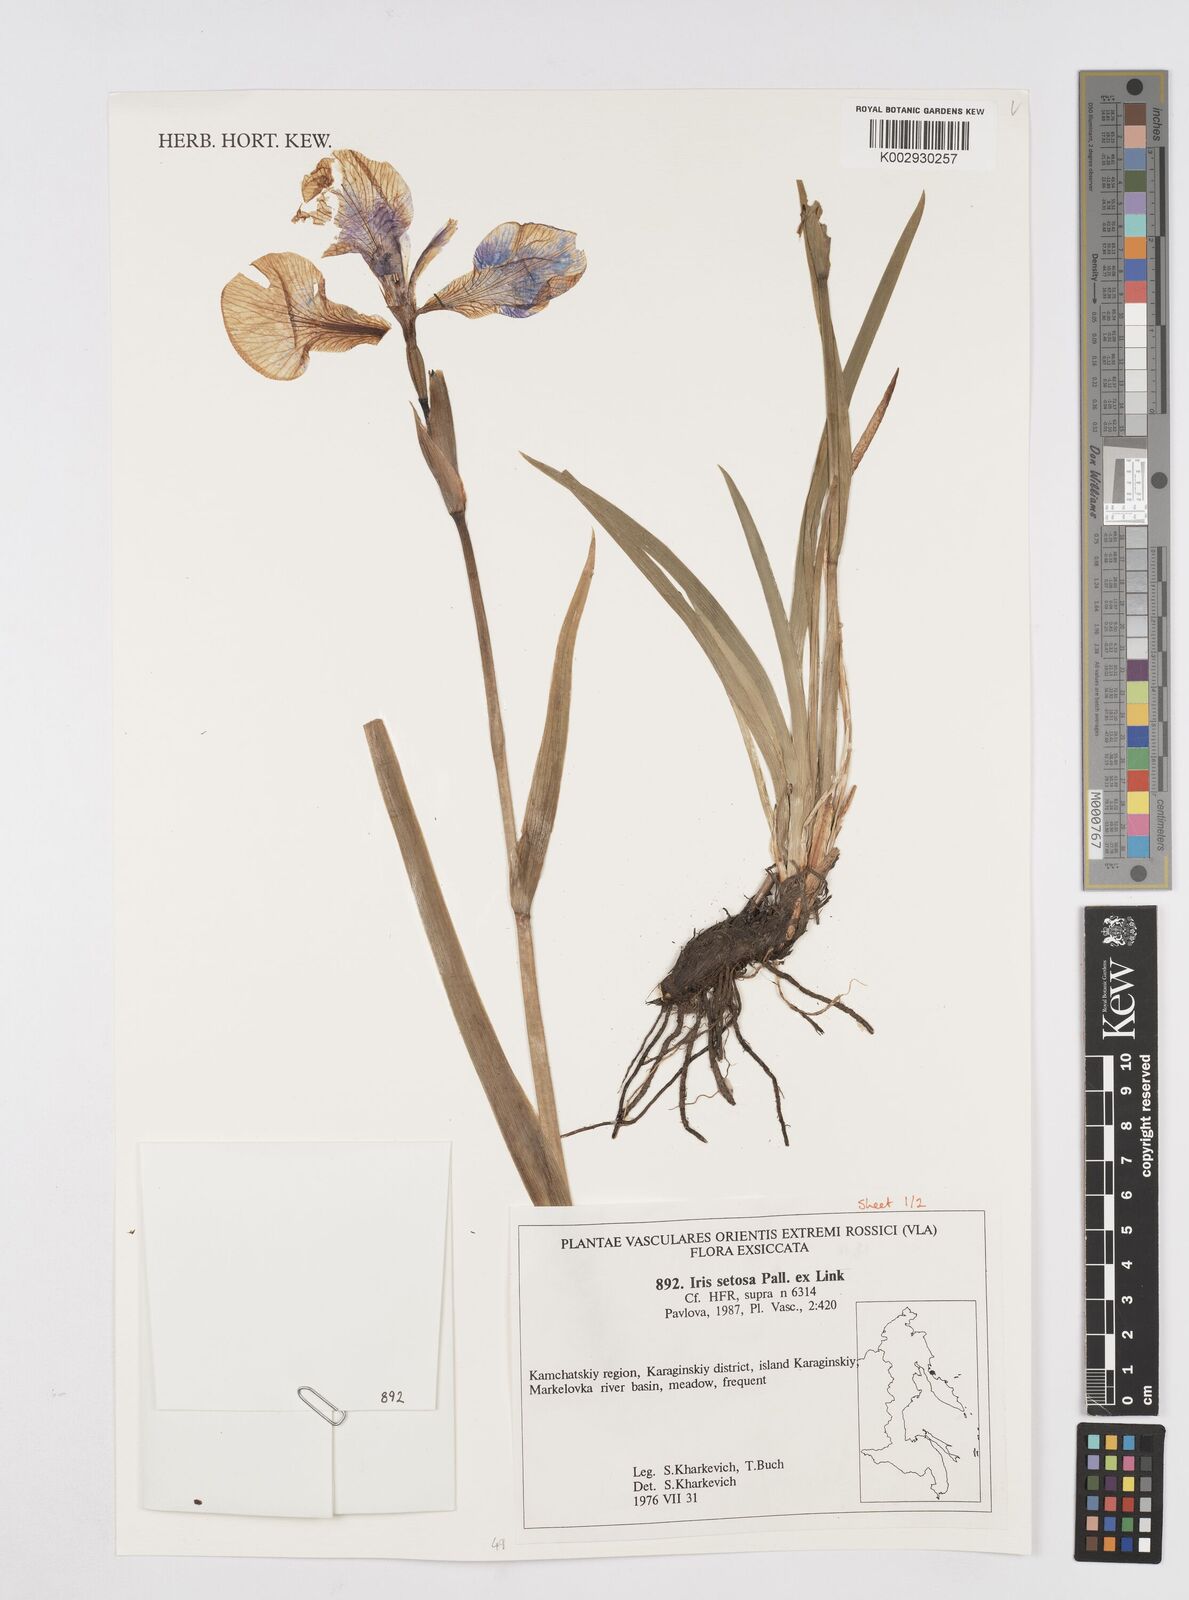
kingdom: Plantae
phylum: Tracheophyta
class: Liliopsida
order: Asparagales
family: Iridaceae
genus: Iris
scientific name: Iris setosa
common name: Arctic blue flag
